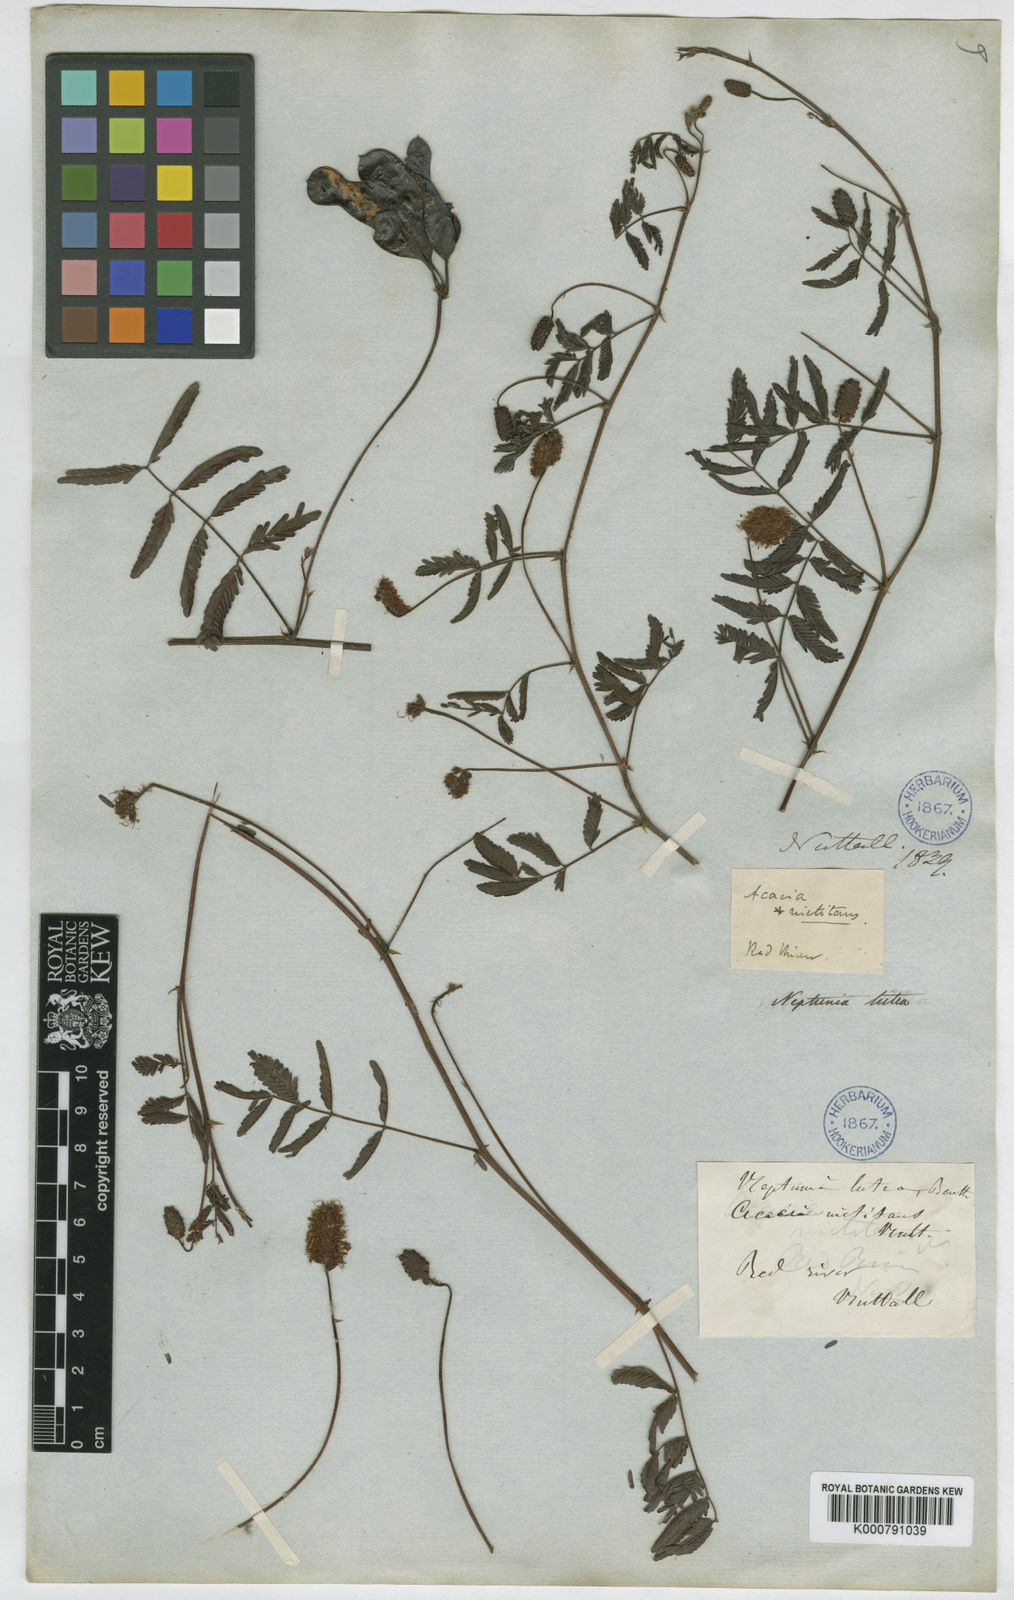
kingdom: Plantae
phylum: Tracheophyta
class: Magnoliopsida
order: Fabales
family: Fabaceae
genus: Neptunia
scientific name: Neptunia lutea
